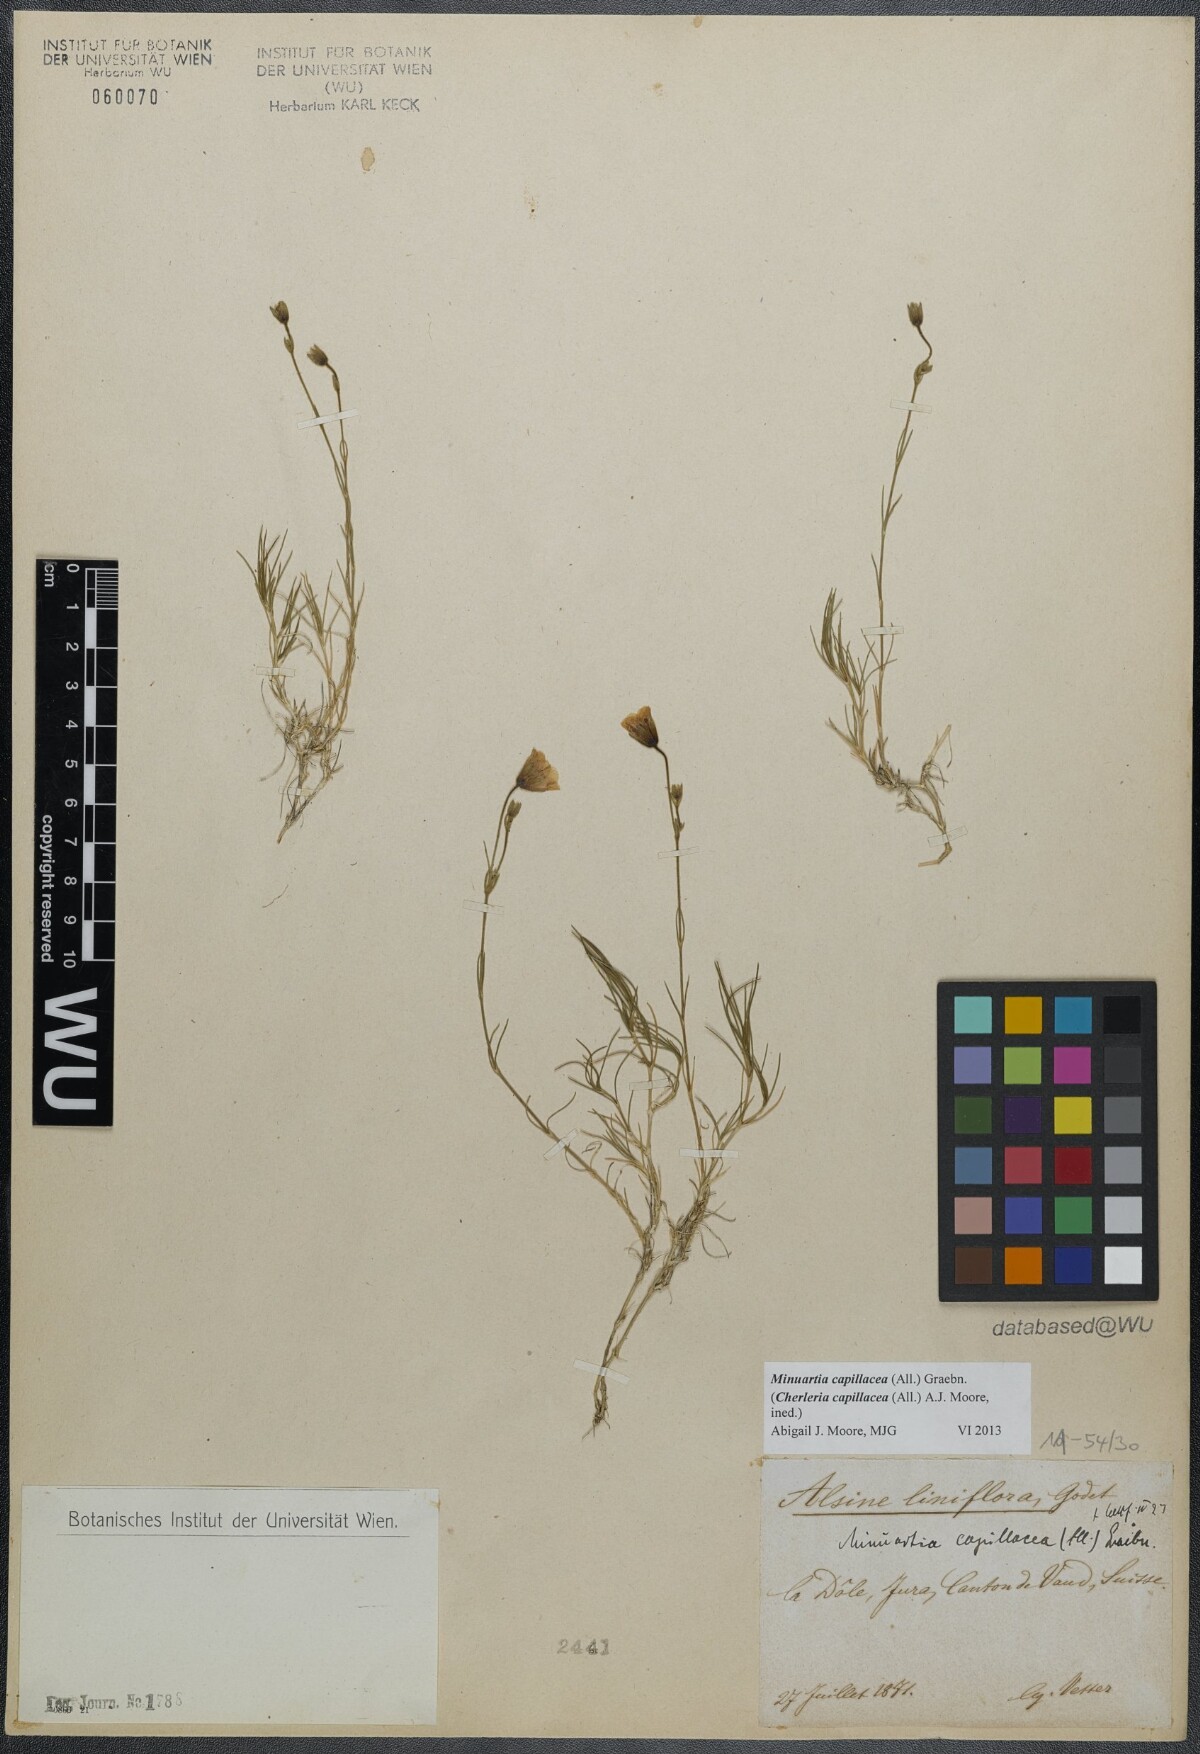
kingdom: Plantae
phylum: Tracheophyta
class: Magnoliopsida
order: Caryophyllales
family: Caryophyllaceae
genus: Cherleria
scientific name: Cherleria capillacea
